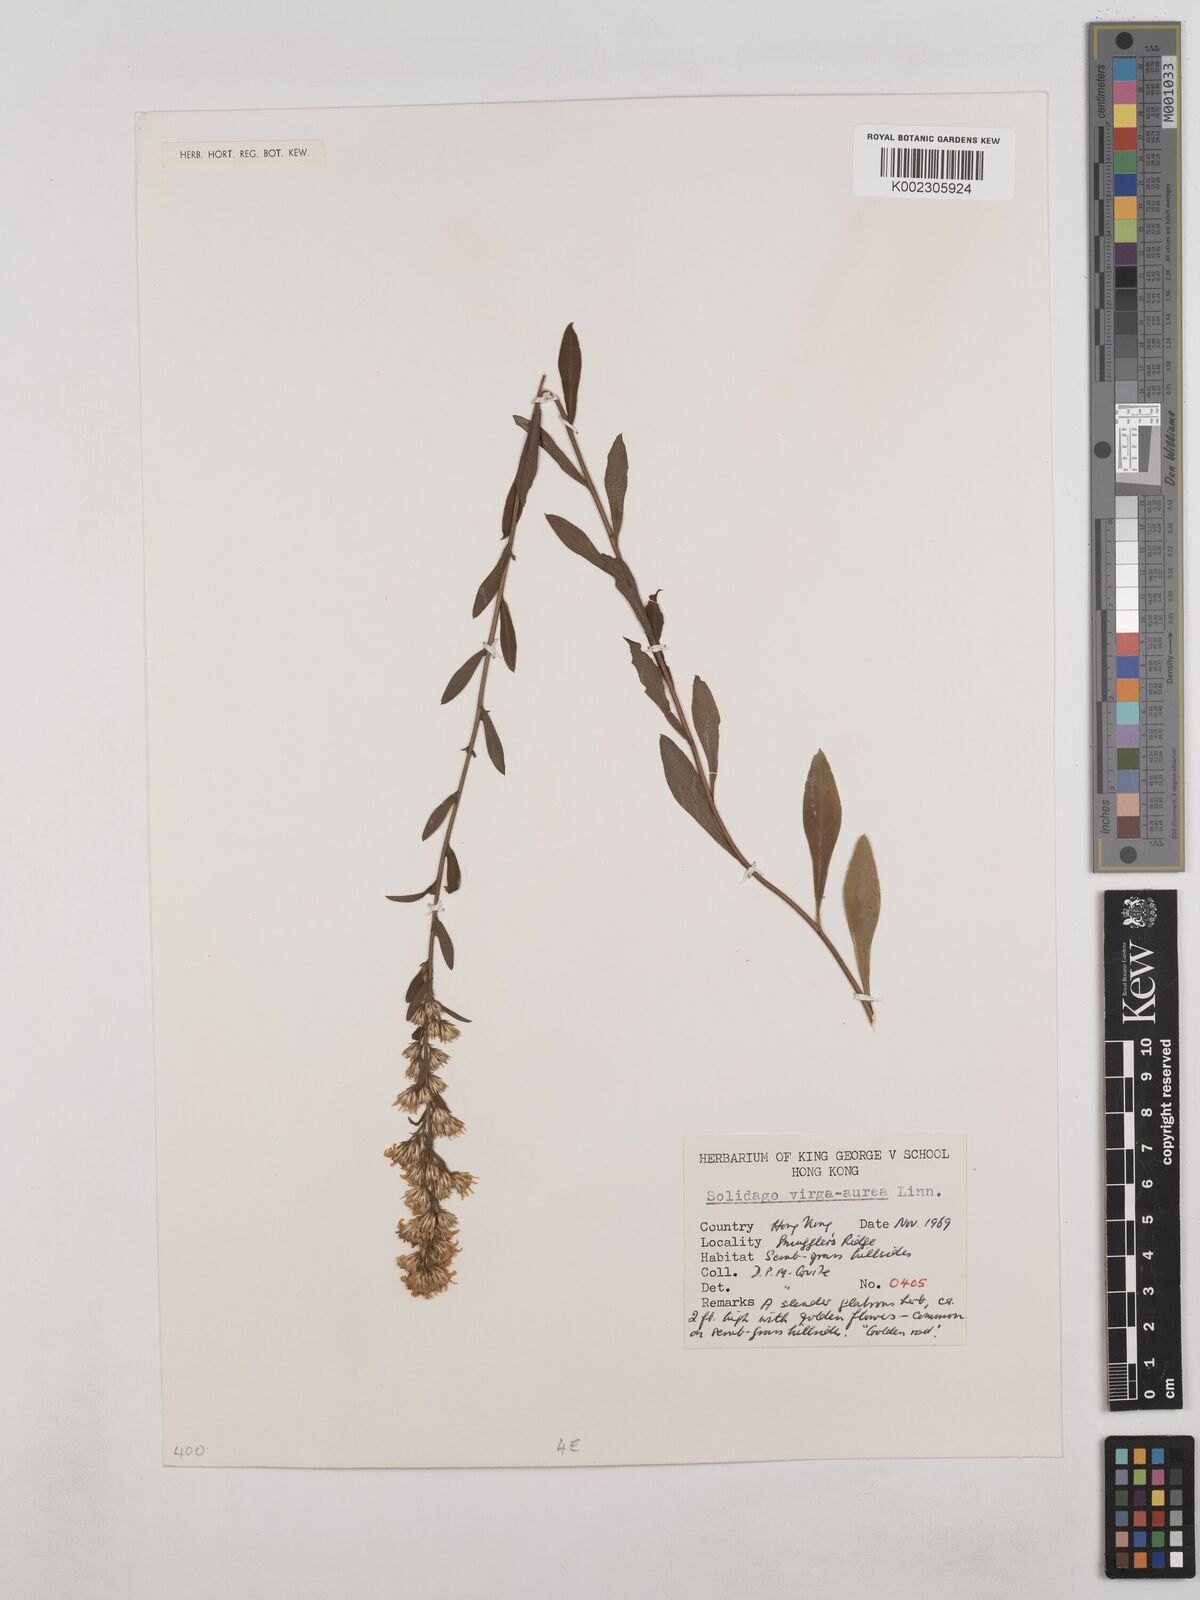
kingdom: Plantae
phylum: Tracheophyta
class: Magnoliopsida
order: Asterales
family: Asteraceae
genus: Solidago
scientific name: Solidago virgaurea
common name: Goldenrod
